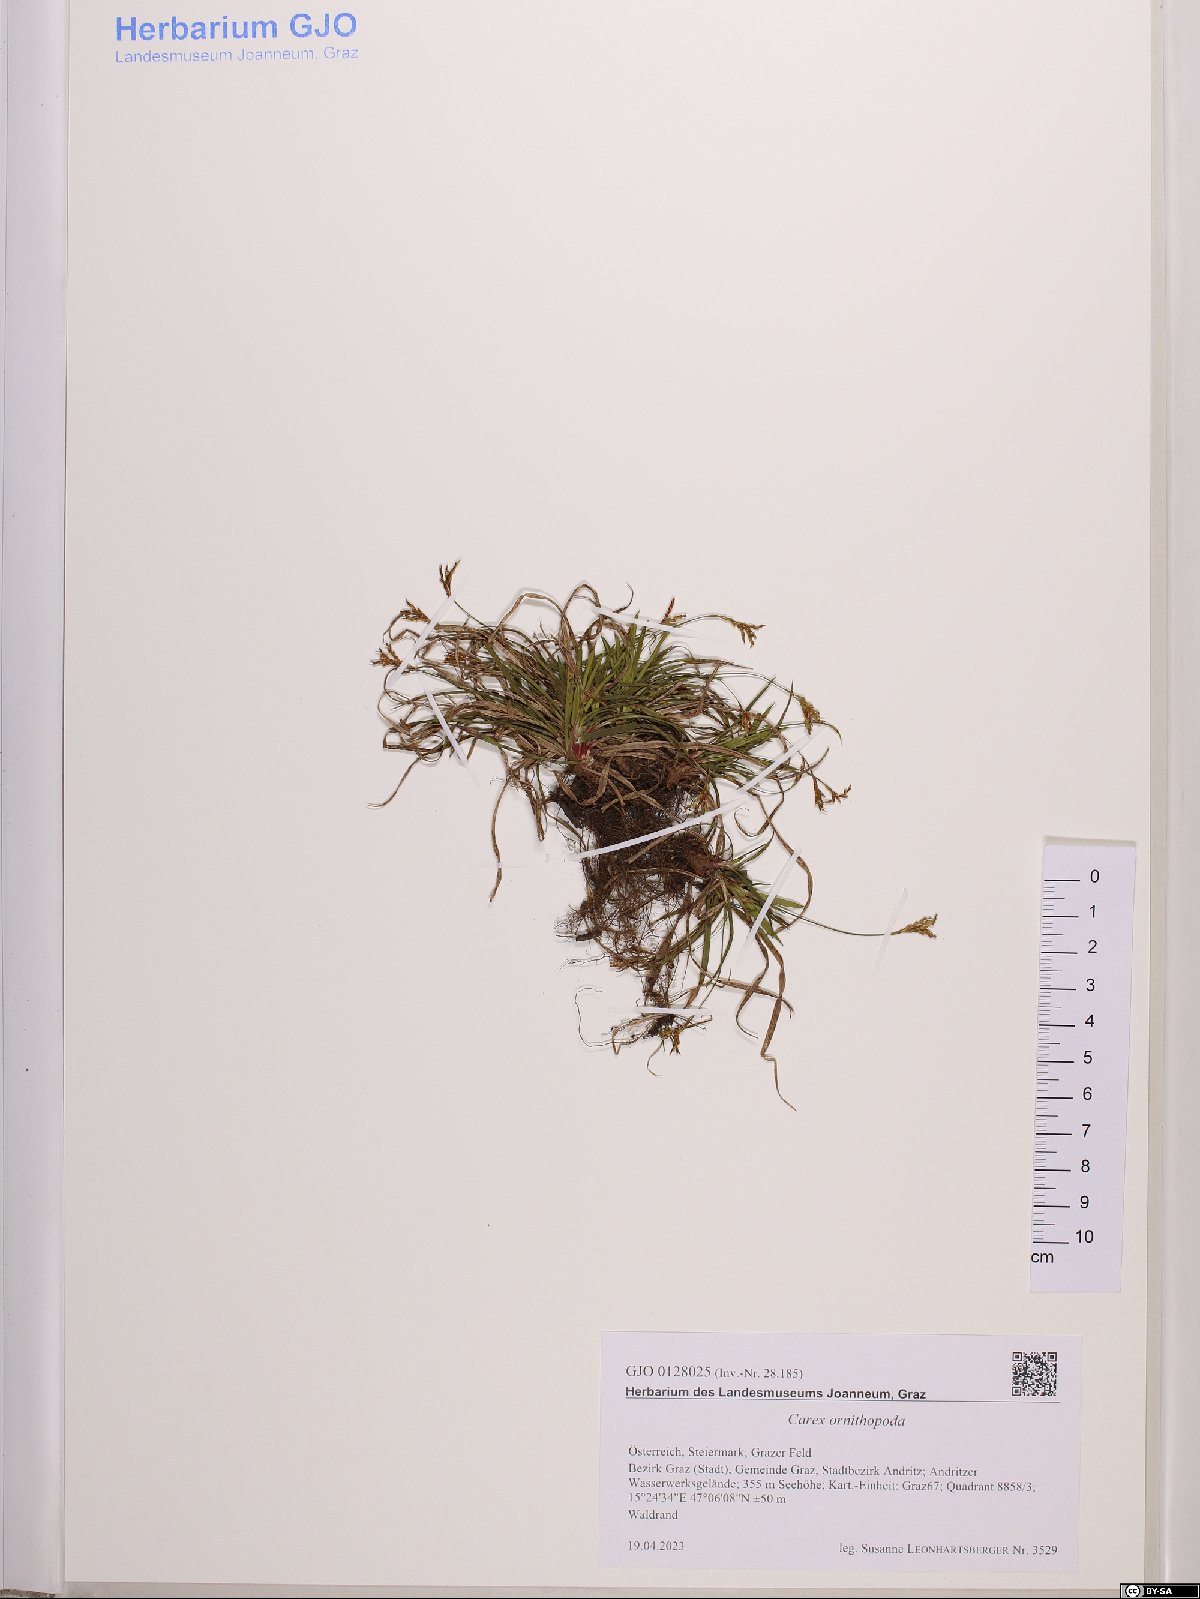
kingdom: Plantae
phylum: Tracheophyta
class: Liliopsida
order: Poales
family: Cyperaceae
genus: Carex
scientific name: Carex ornithopoda
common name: Bird's-foot sedge
